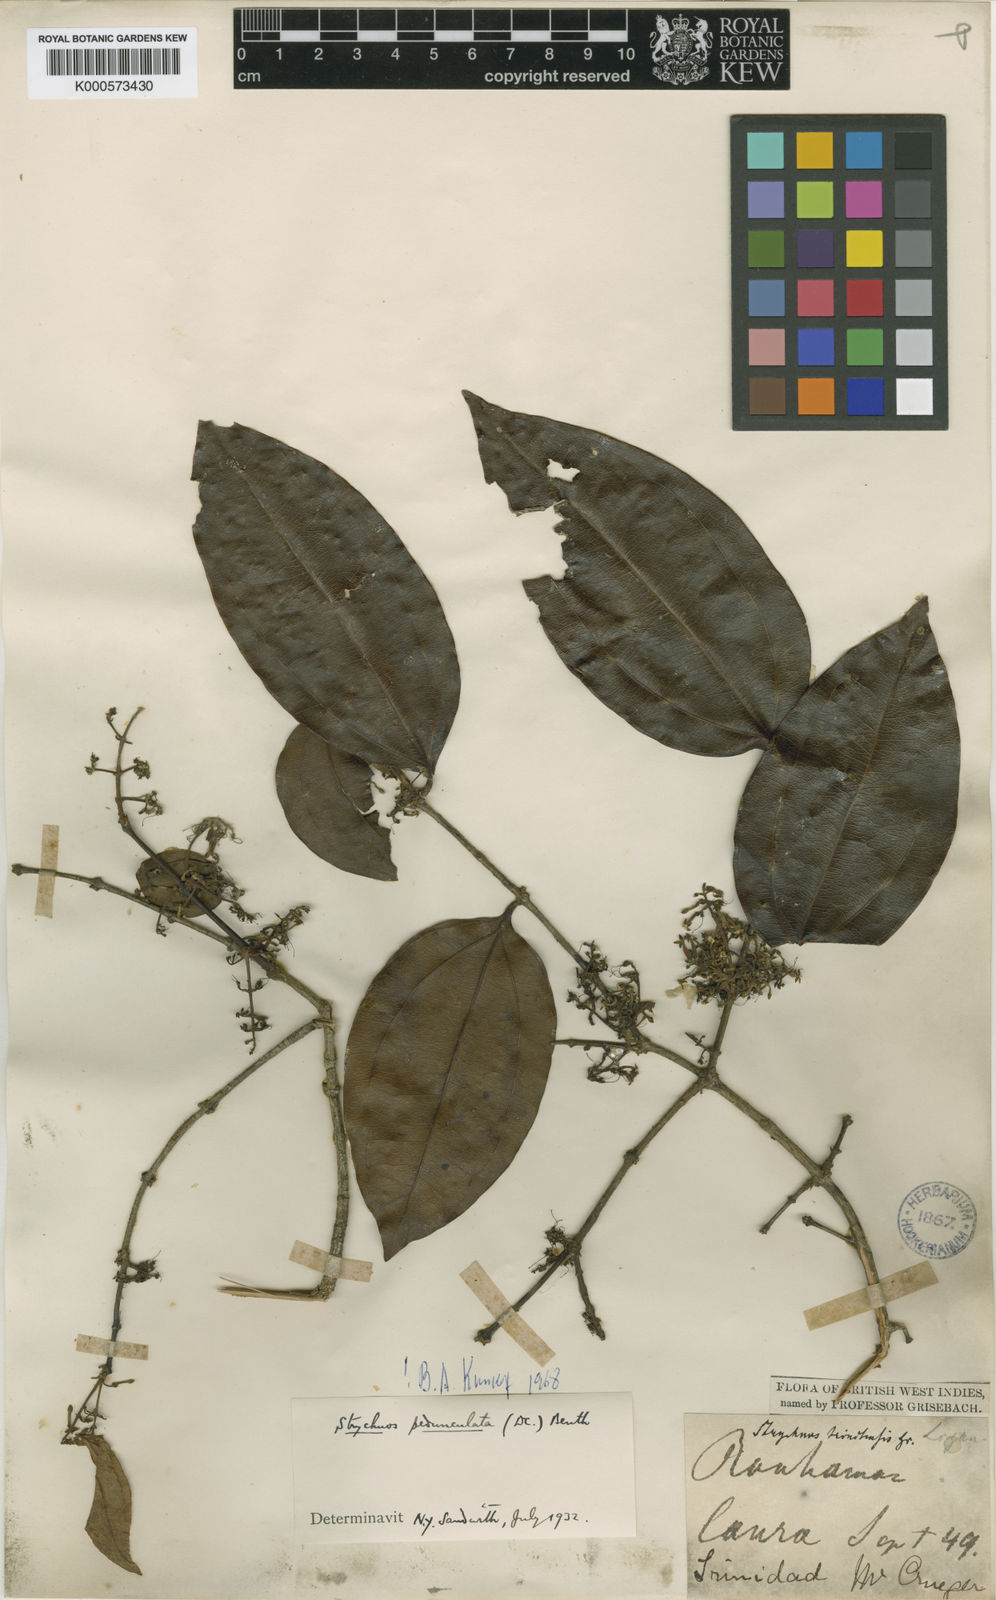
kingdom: Plantae
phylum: Tracheophyta
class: Magnoliopsida
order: Gentianales
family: Loganiaceae
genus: Strychnos
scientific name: Strychnos bredemeyeri
